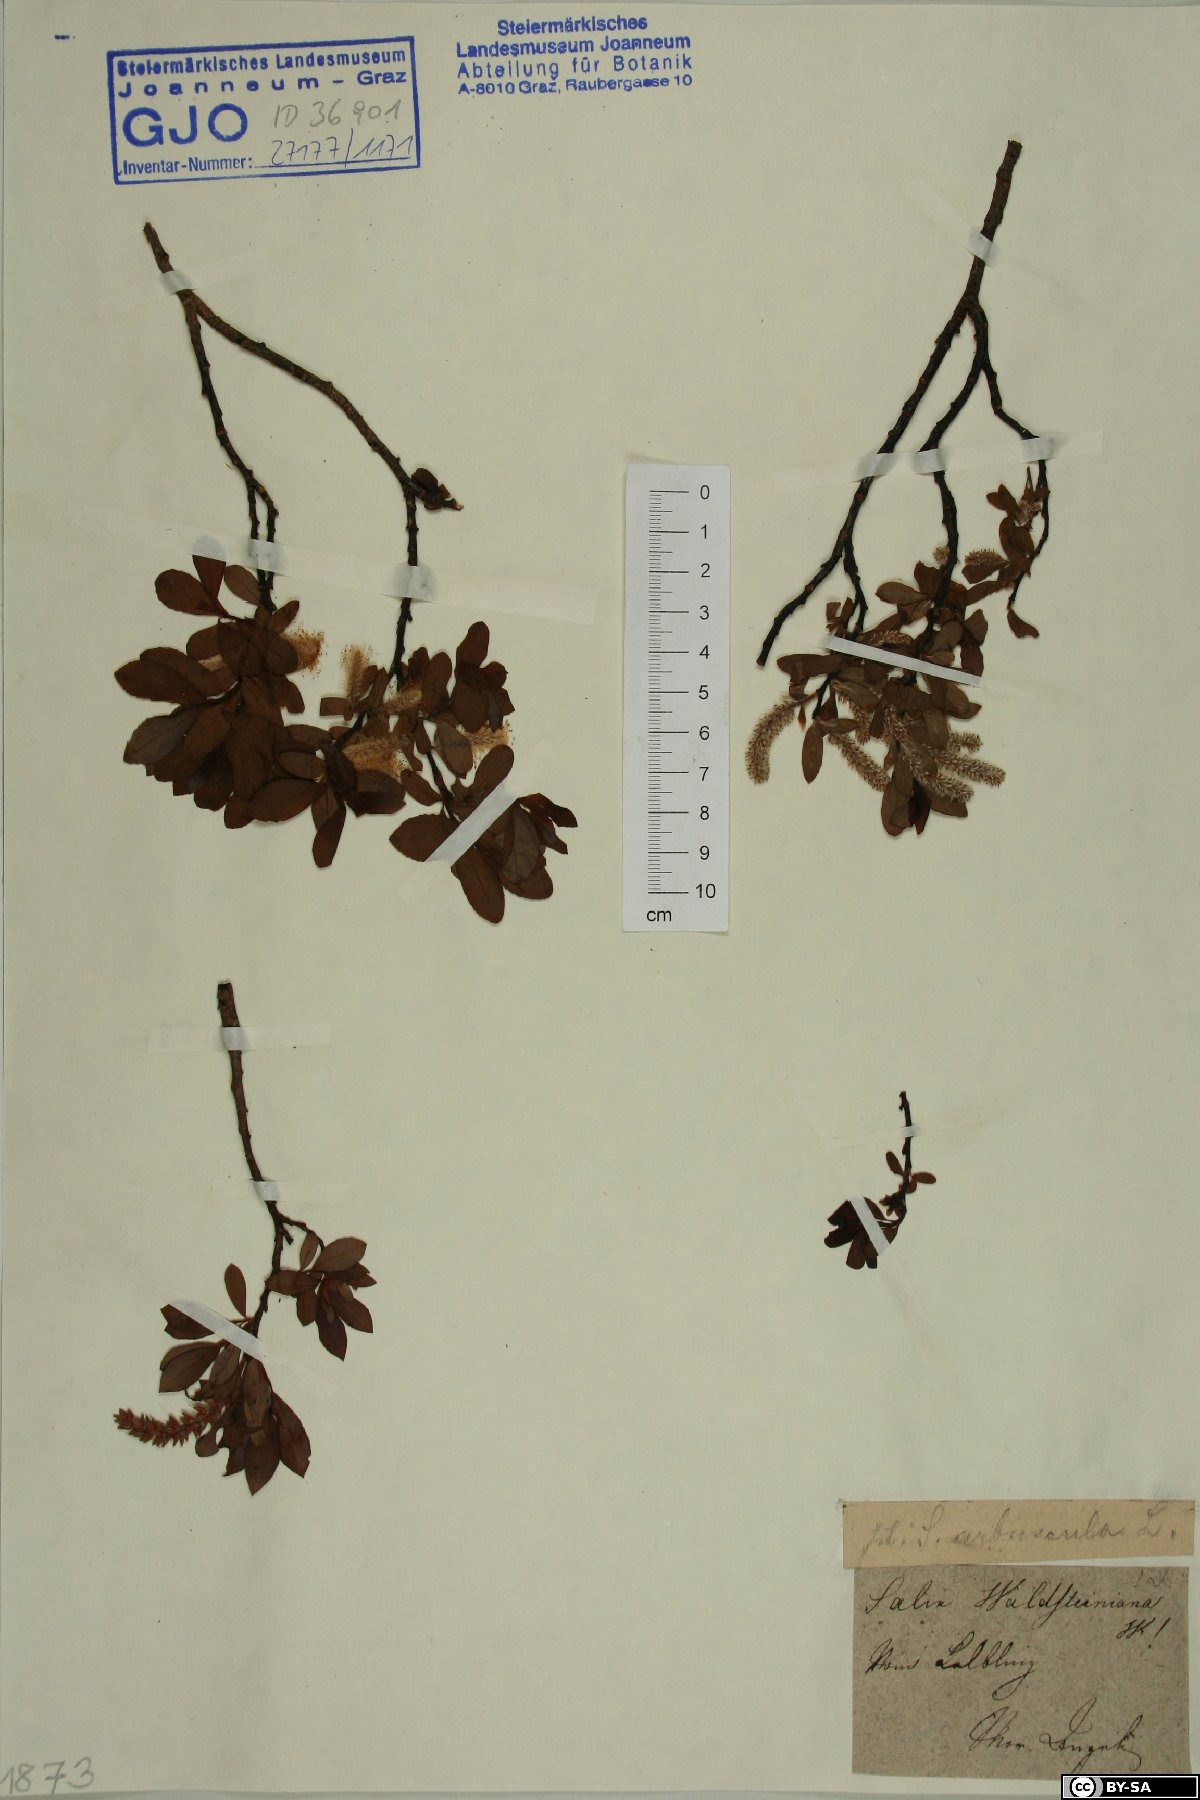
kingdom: Plantae
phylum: Tracheophyta
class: Magnoliopsida
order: Malpighiales
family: Salicaceae
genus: Salix
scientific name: Salix waldsteiniana
